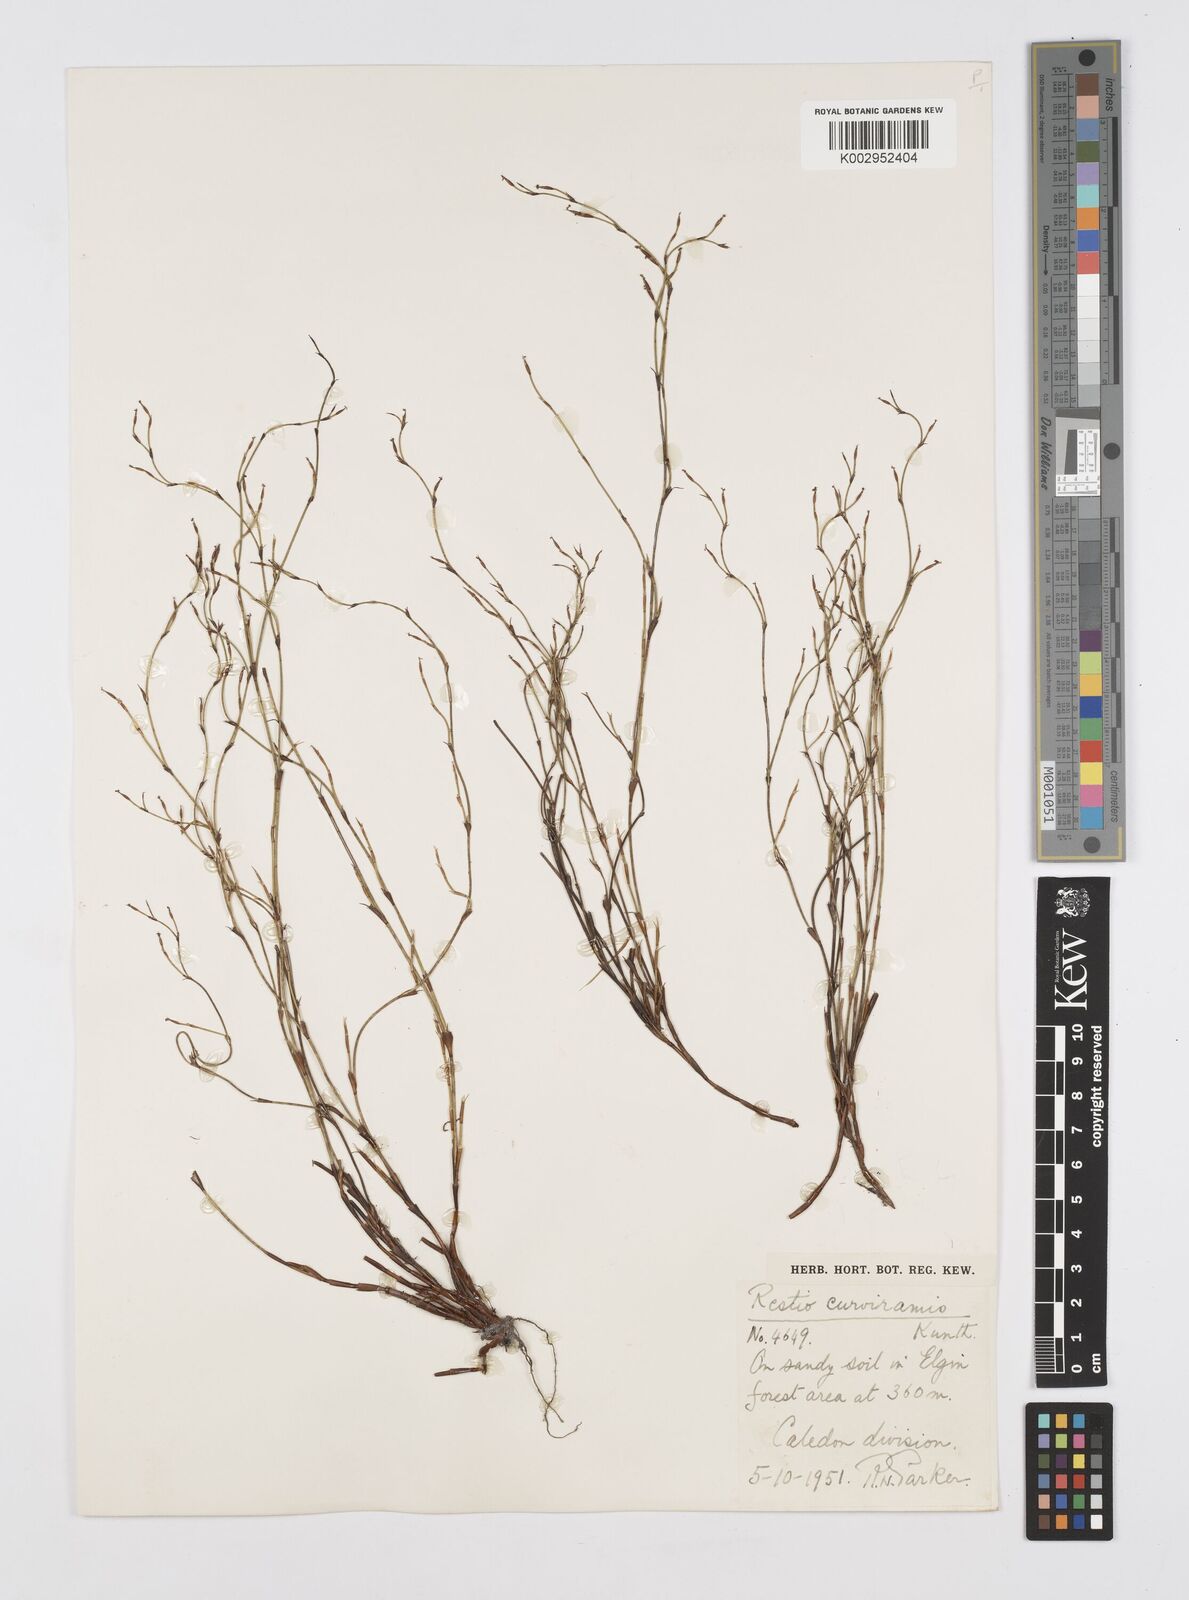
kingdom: Plantae
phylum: Tracheophyta
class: Liliopsida
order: Poales
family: Restionaceae
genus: Restio
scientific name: Restio curviramis
